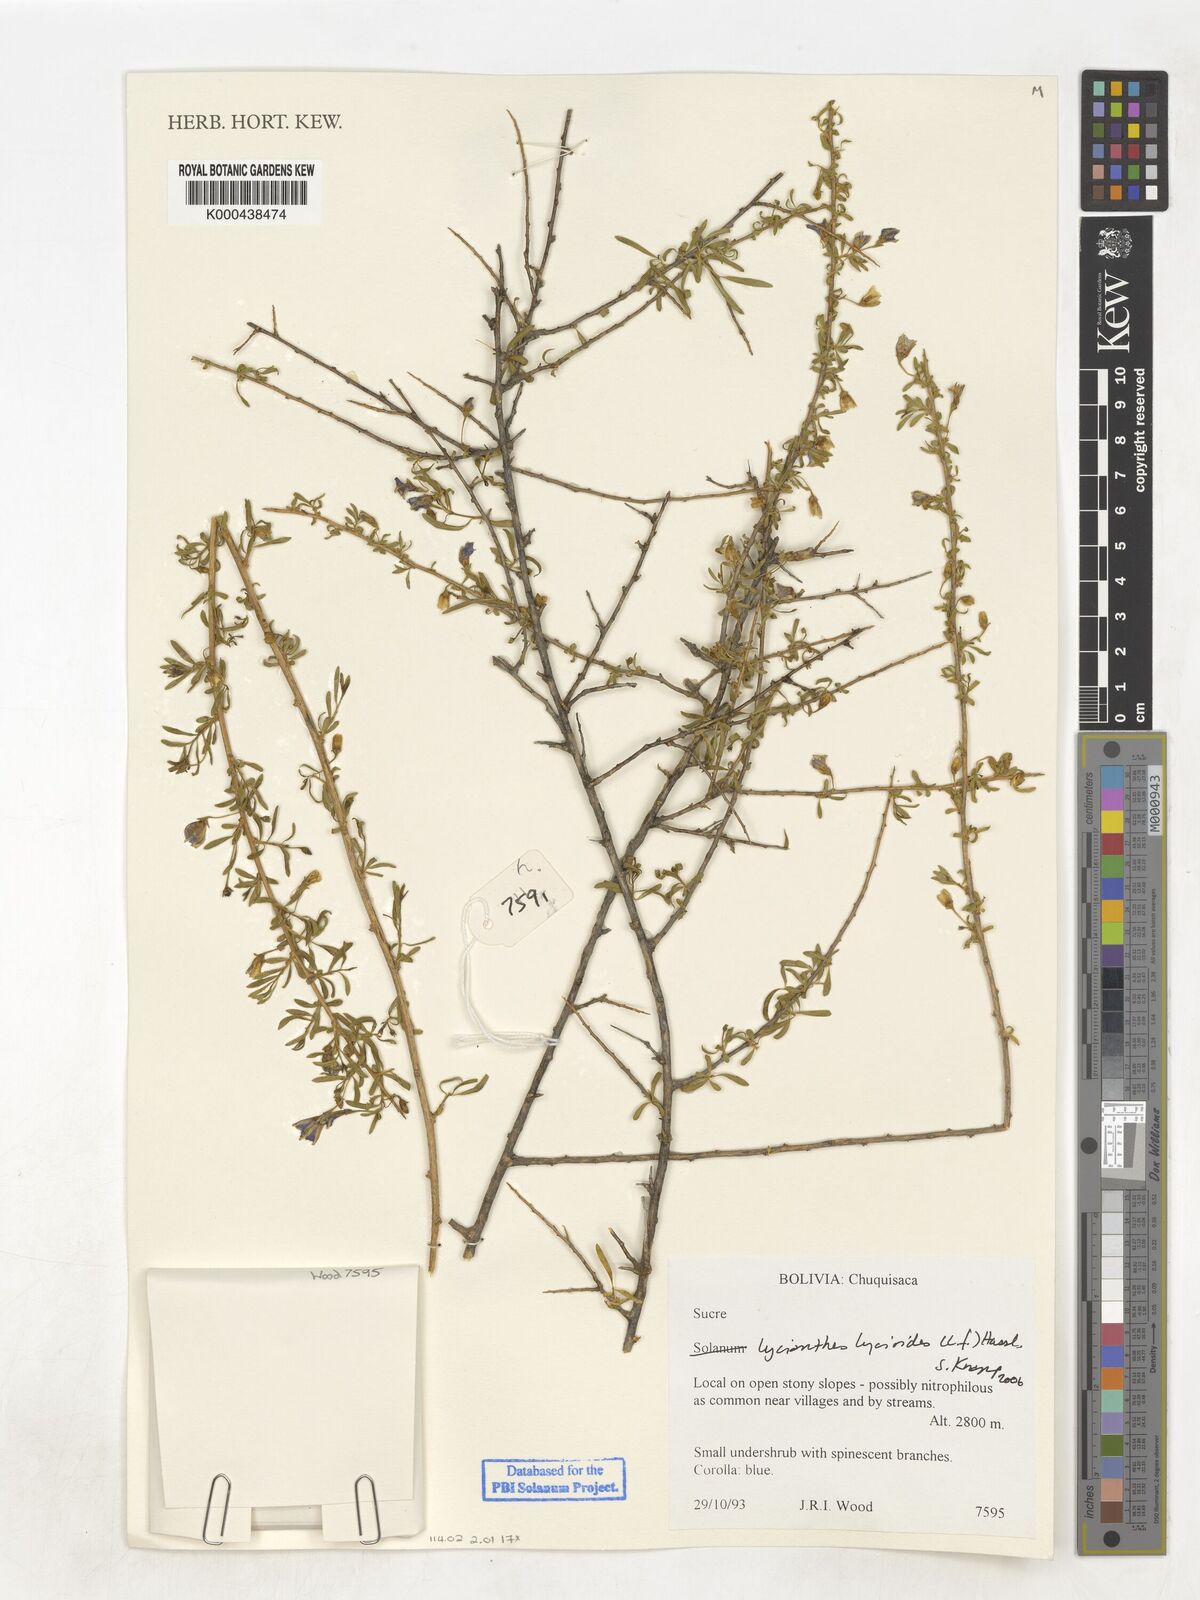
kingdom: Plantae
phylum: Tracheophyta
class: Magnoliopsida
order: Solanales
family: Solanaceae
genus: Lycianthes
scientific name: Lycianthes lycioides
